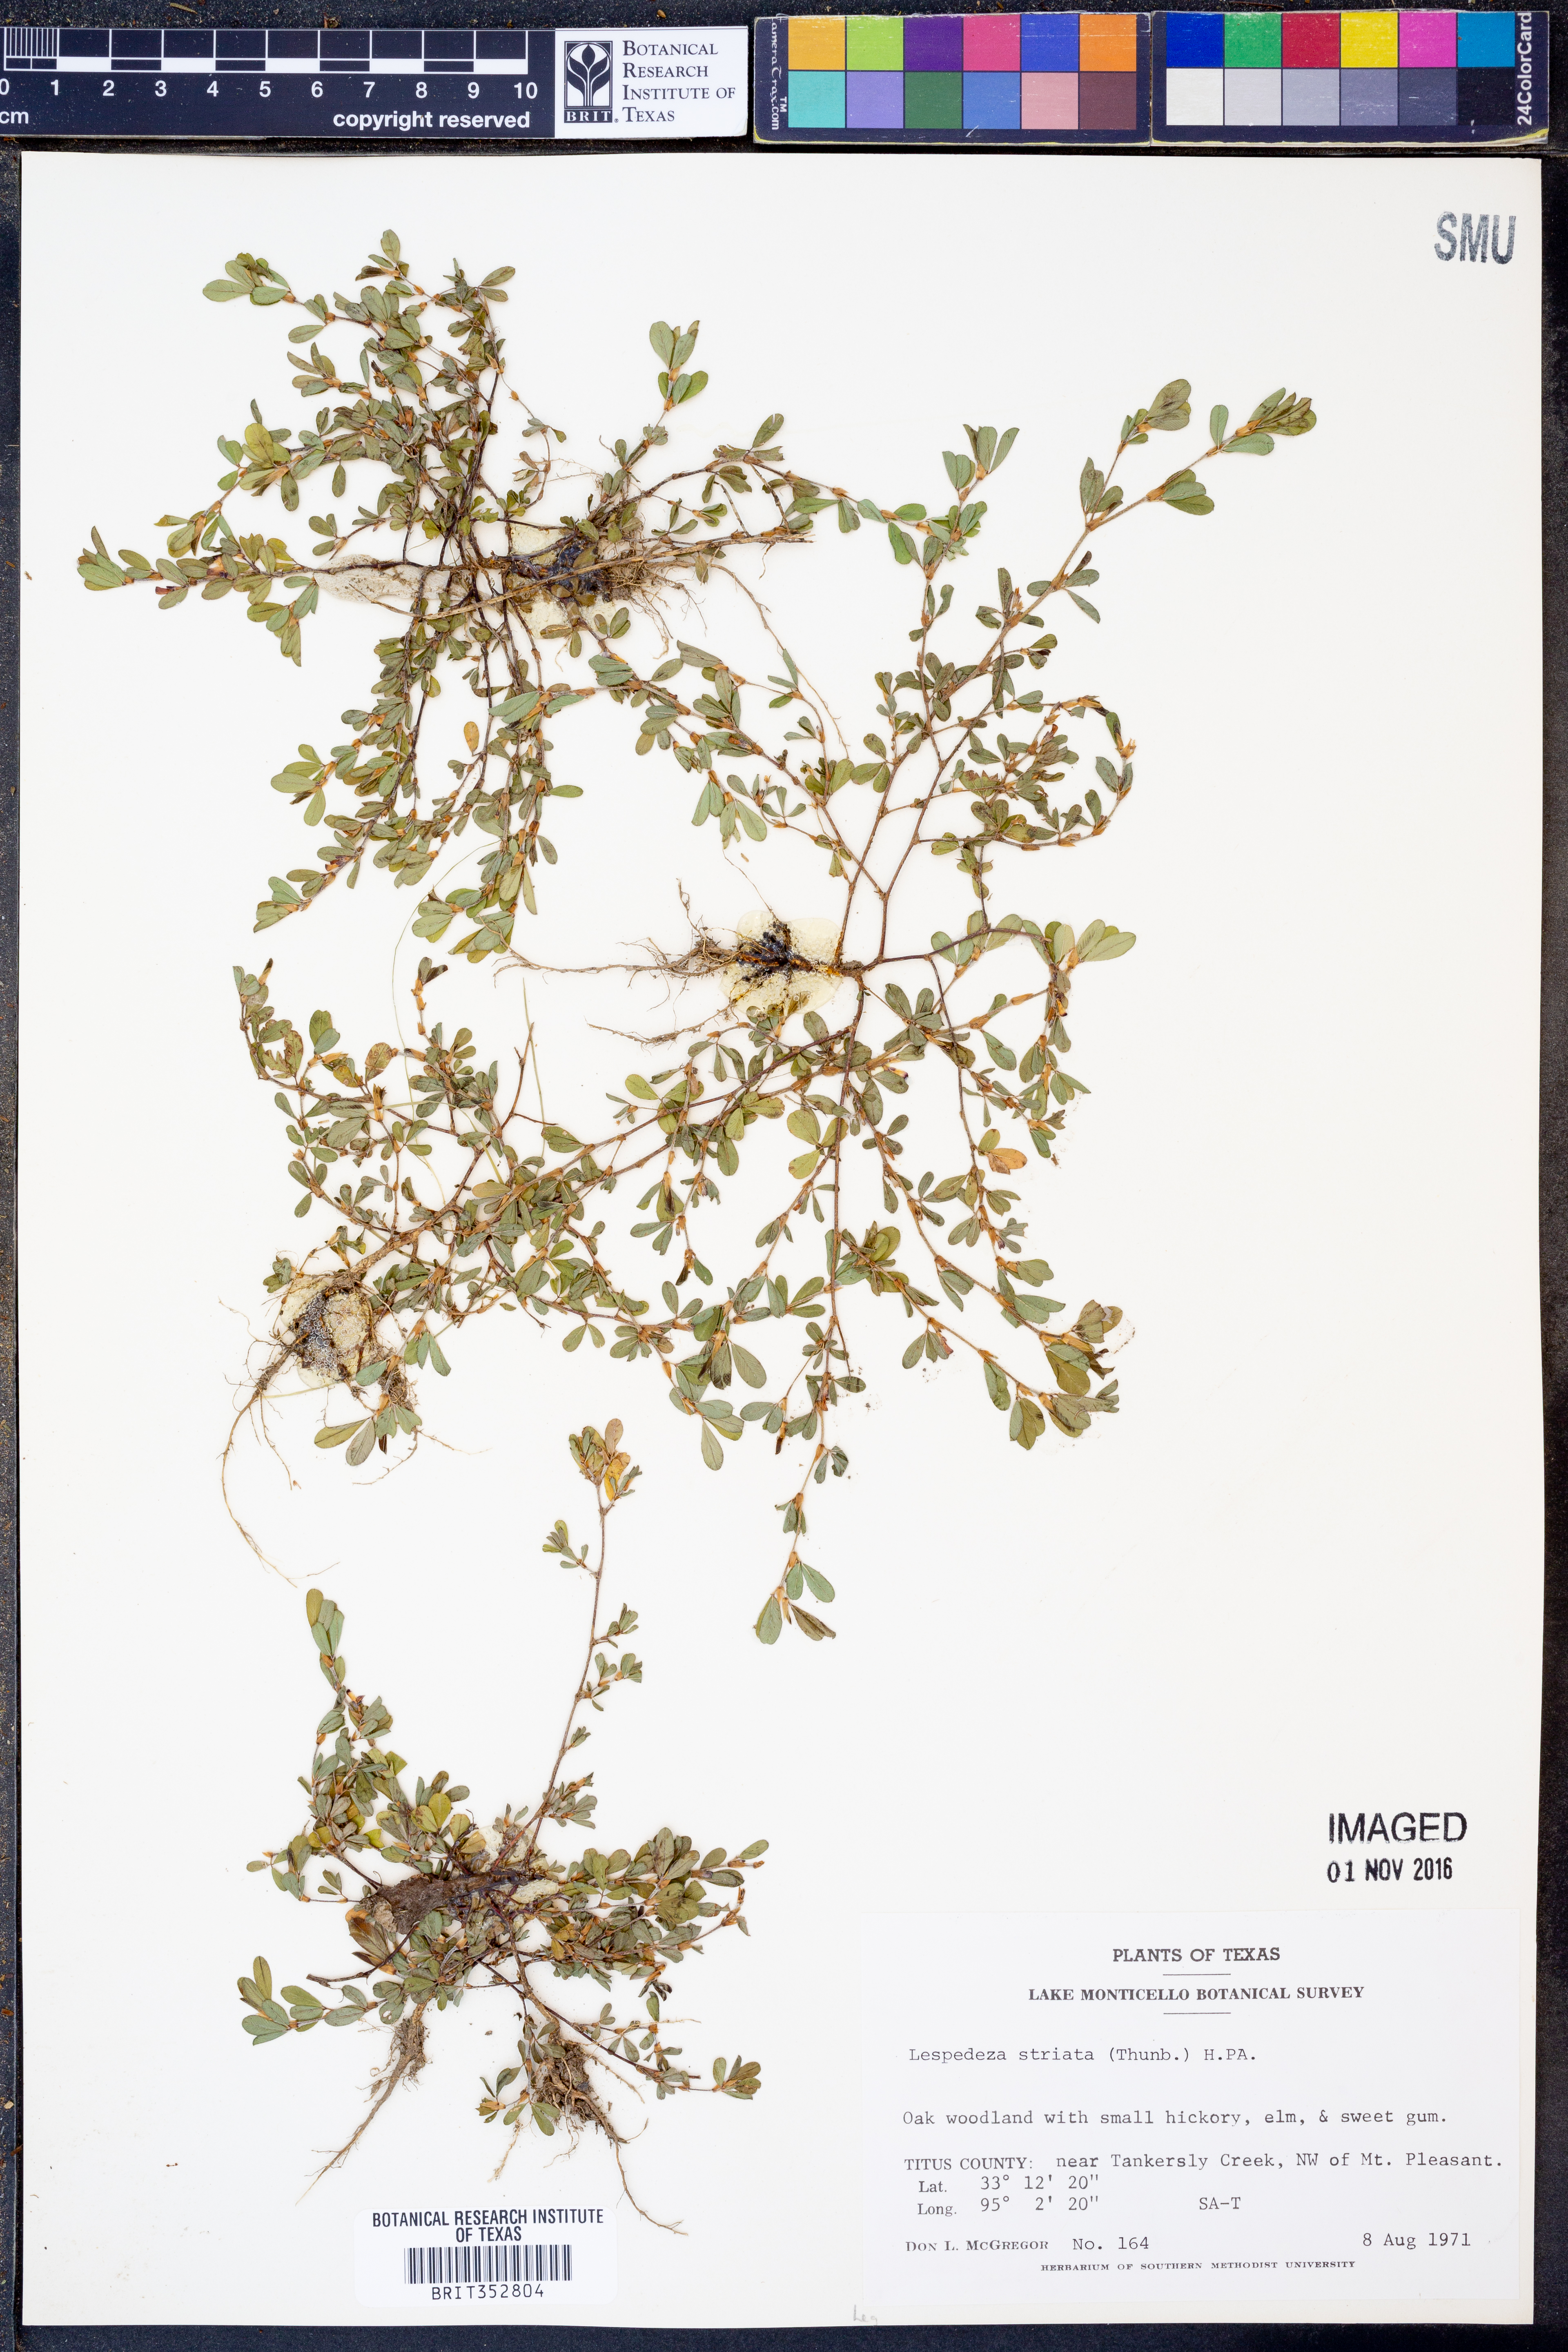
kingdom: Plantae
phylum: Tracheophyta
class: Magnoliopsida
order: Fabales
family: Fabaceae
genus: Kummerowia
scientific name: Kummerowia striata
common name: Japanese clover
